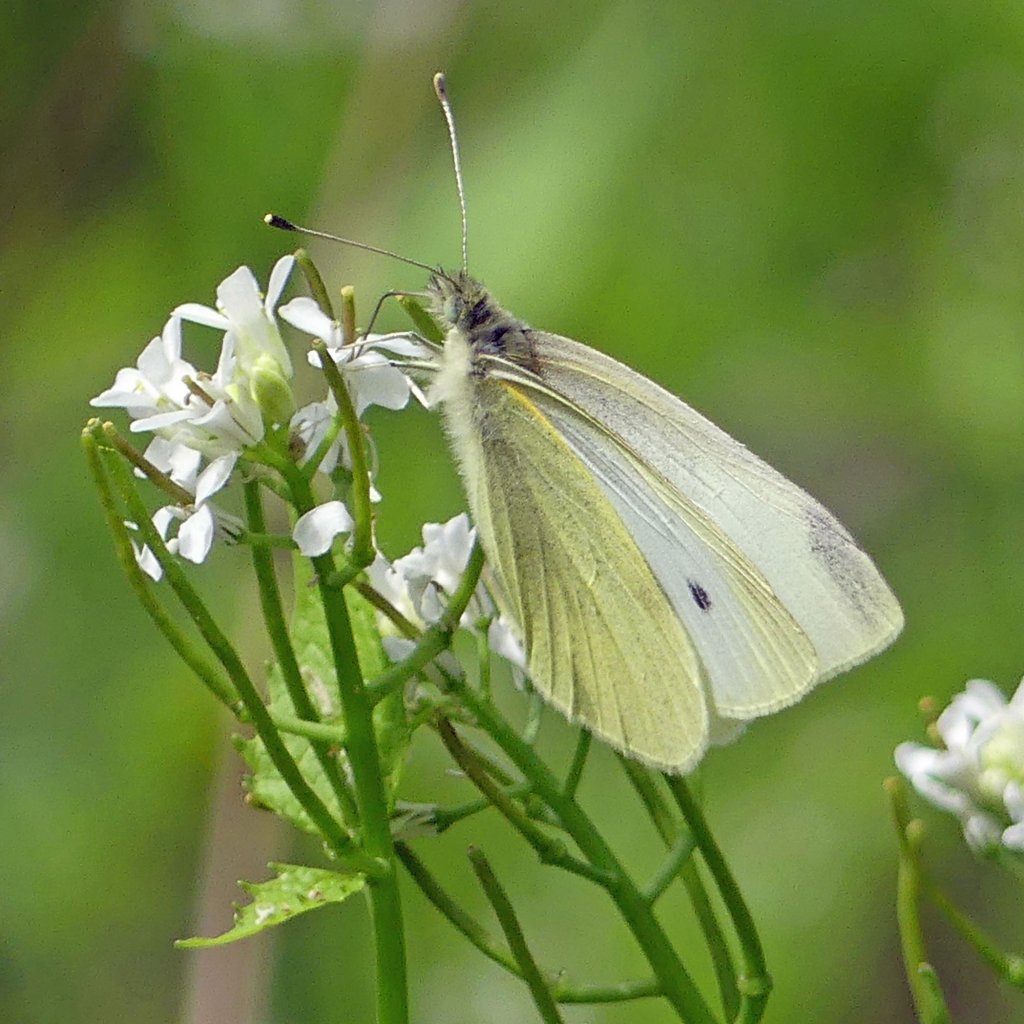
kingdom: Animalia
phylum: Arthropoda
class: Insecta
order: Lepidoptera
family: Pieridae
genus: Pieris
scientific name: Pieris rapae
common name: Cabbage White
